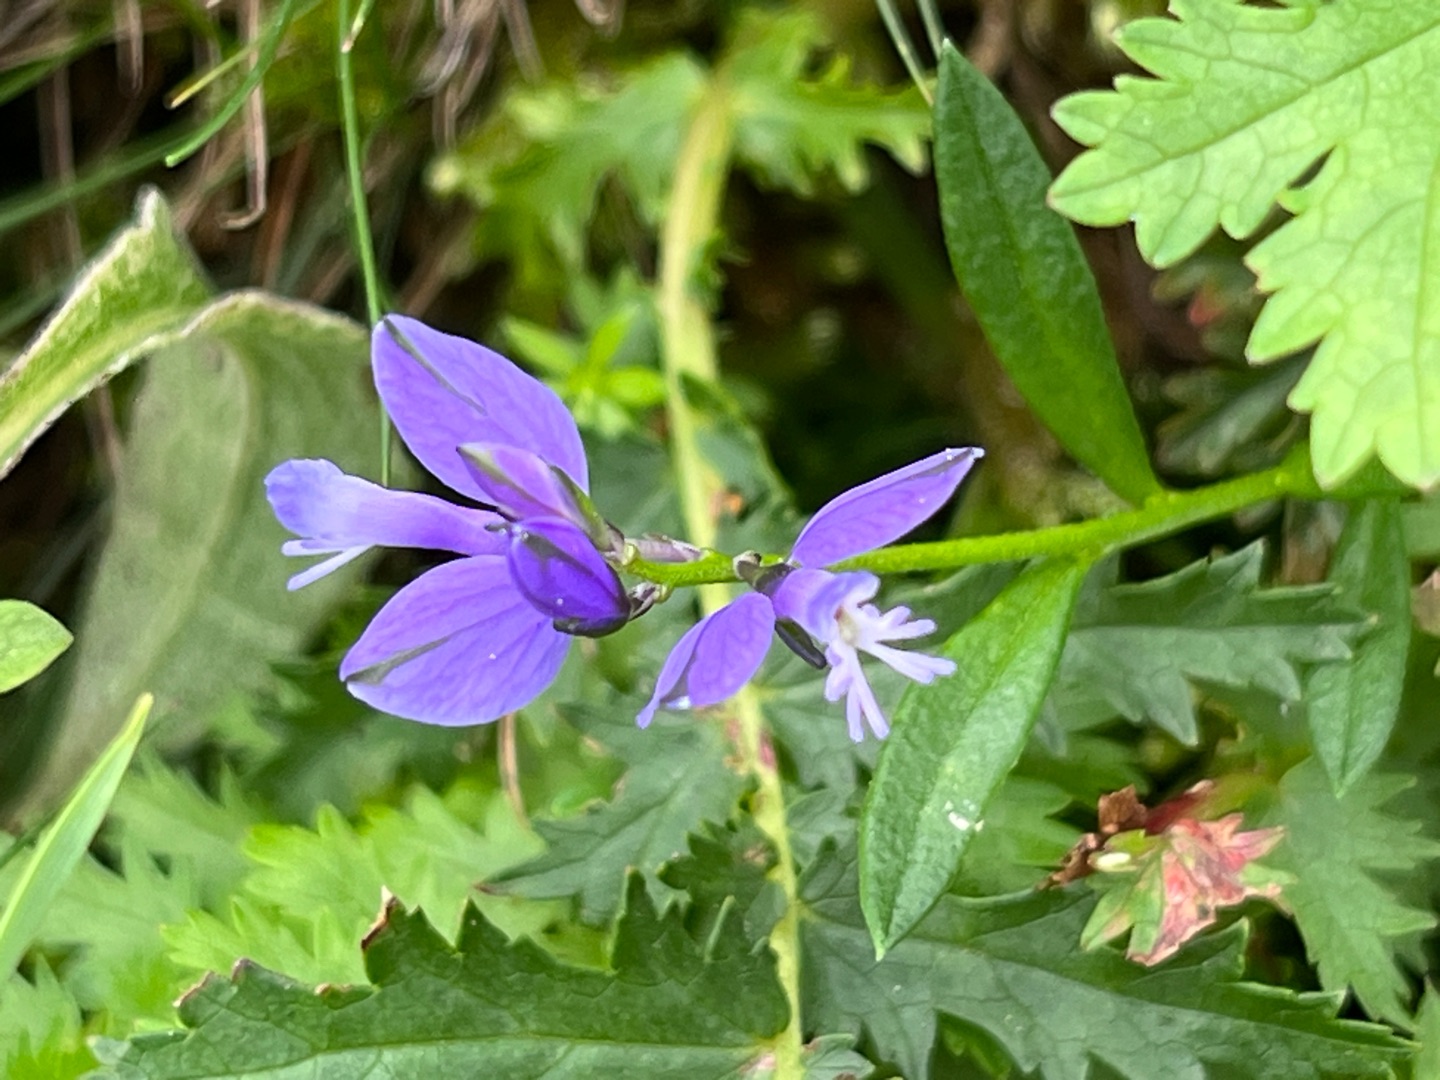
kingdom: Plantae
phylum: Tracheophyta
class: Magnoliopsida
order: Fabales
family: Polygalaceae
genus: Polygala
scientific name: Polygala vulgaris
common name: Almindelig mælkeurt
